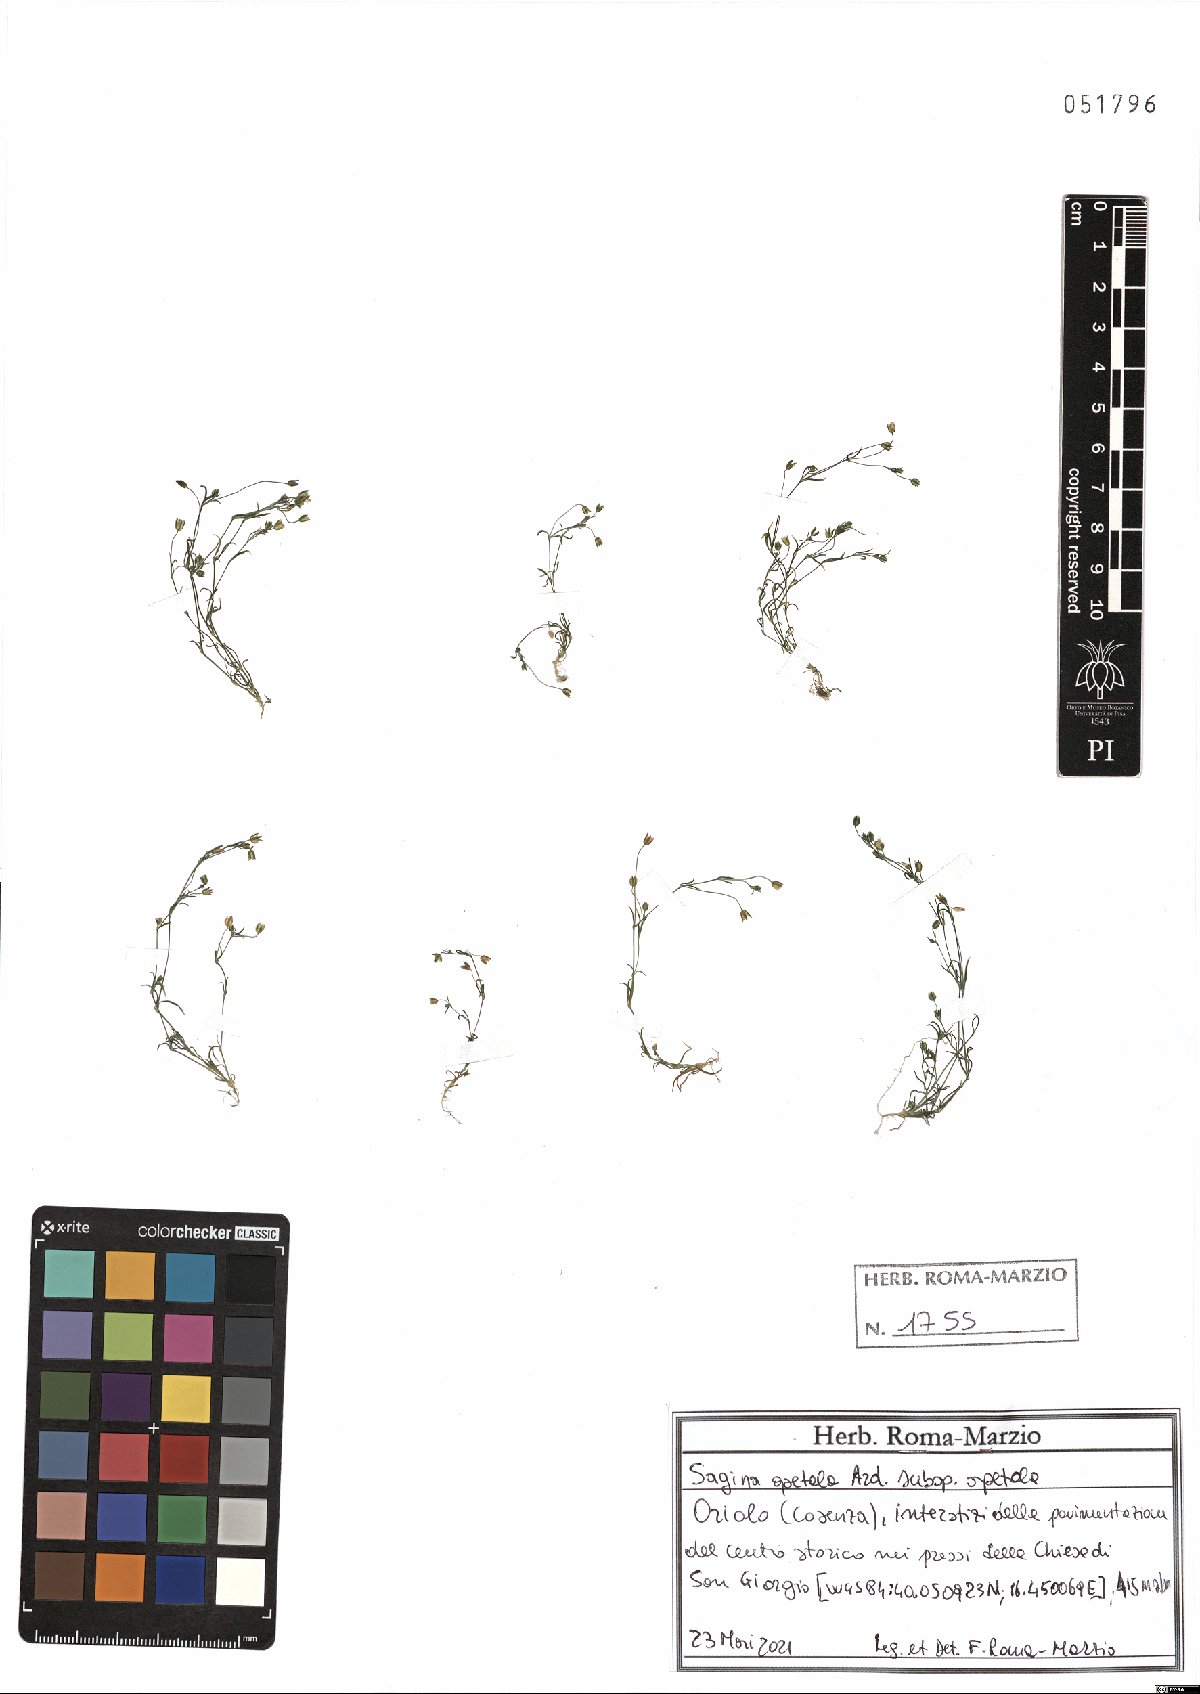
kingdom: Plantae
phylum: Tracheophyta
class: Magnoliopsida
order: Caryophyllales
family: Caryophyllaceae
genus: Sagina
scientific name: Sagina apetala
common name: Annual pearlwort
